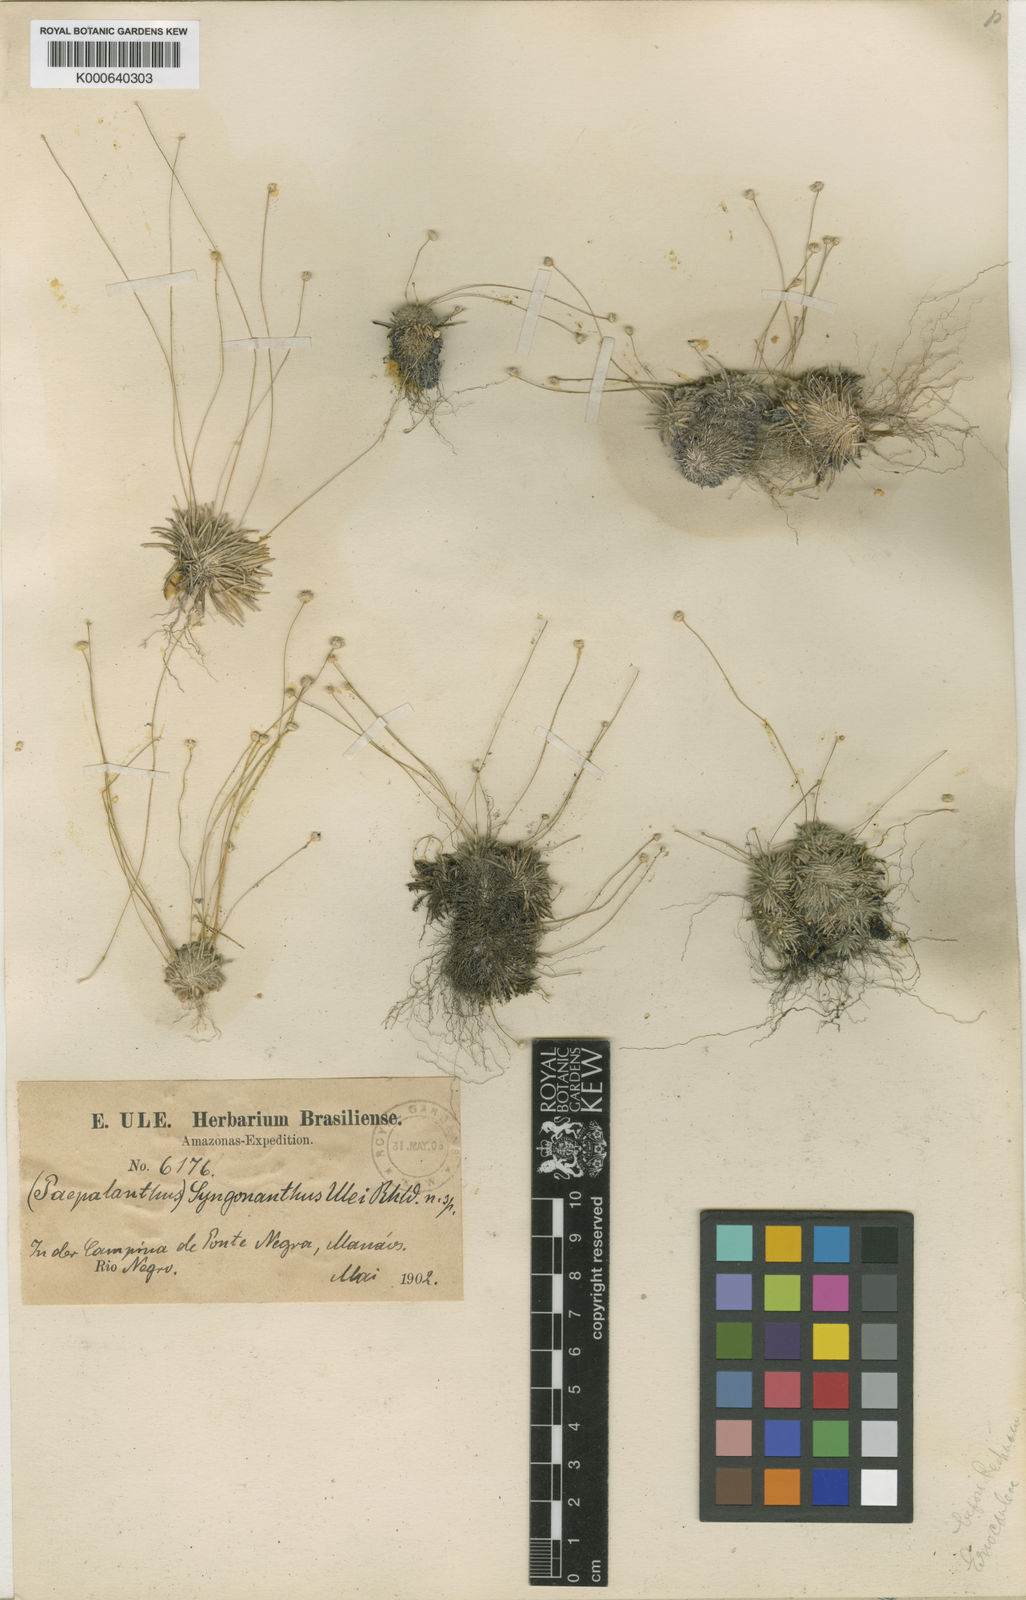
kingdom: Plantae
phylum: Tracheophyta
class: Liliopsida
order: Poales
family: Eriocaulaceae
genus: Comanthera
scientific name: Comanthera kegeliana
